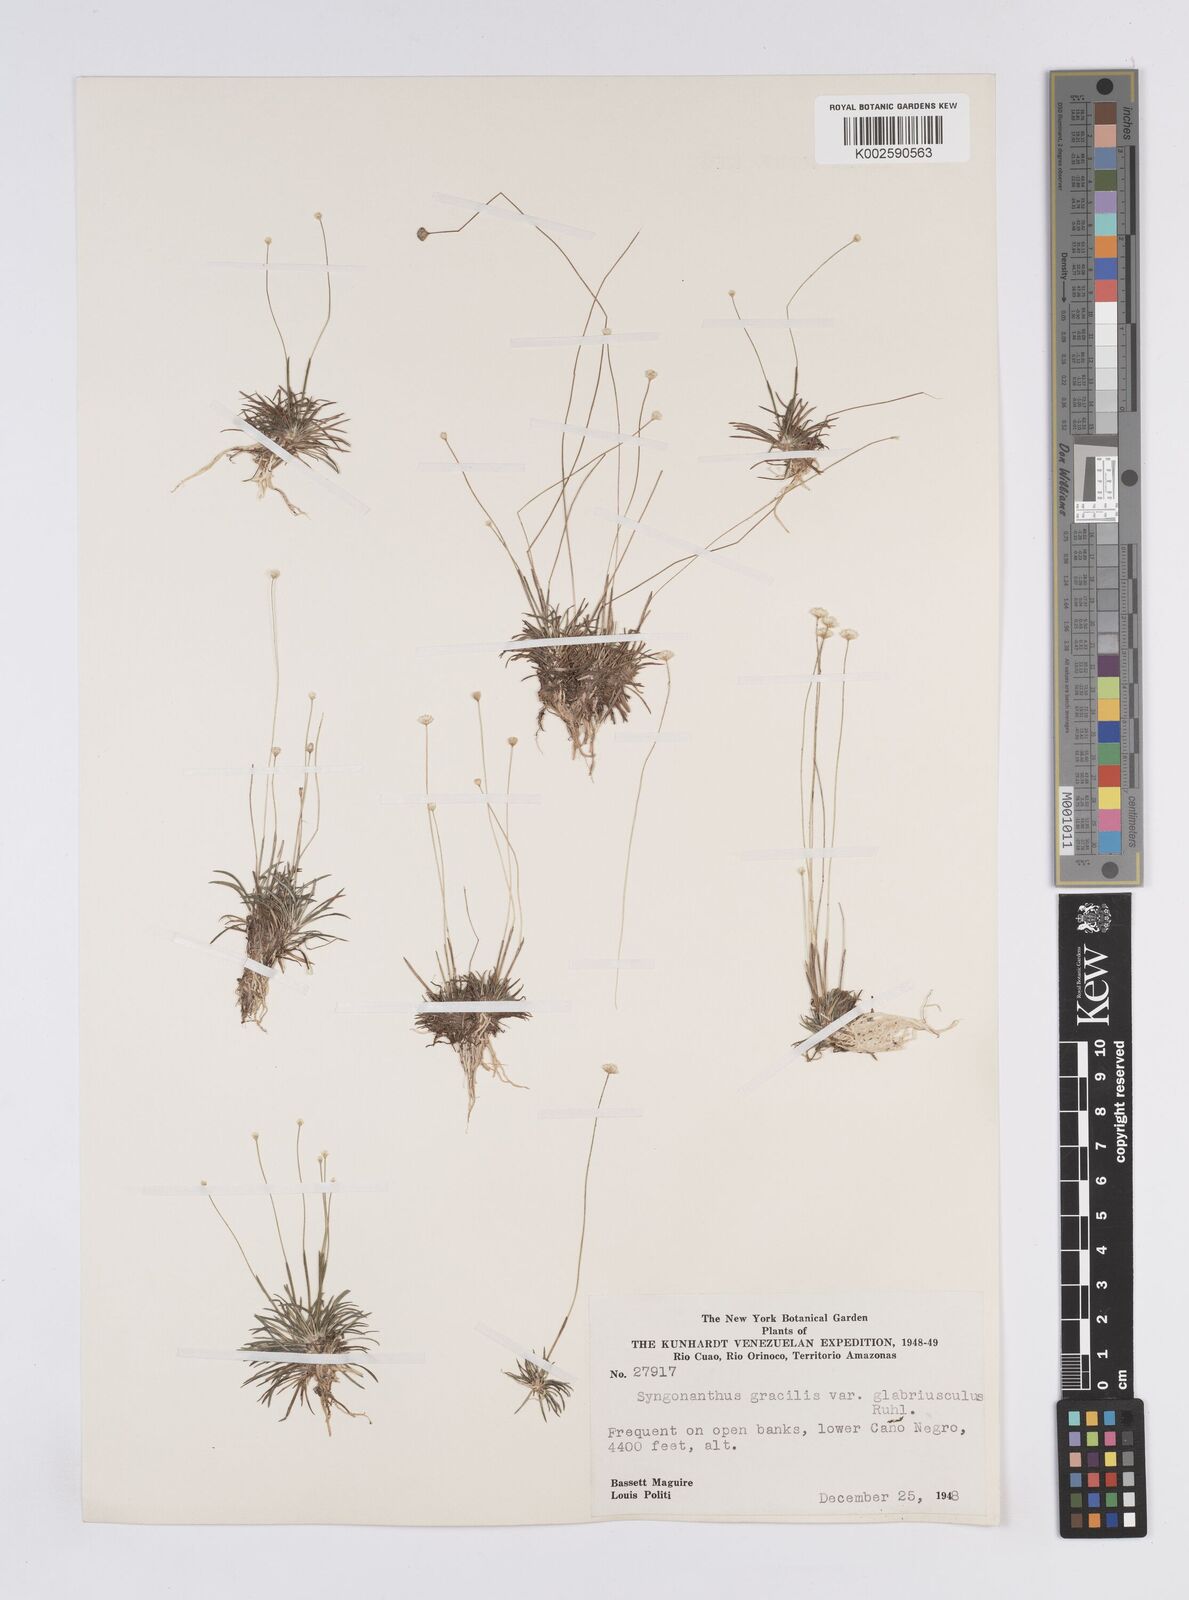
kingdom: Plantae
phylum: Tracheophyta
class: Liliopsida
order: Poales
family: Eriocaulaceae
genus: Syngonanthus
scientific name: Syngonanthus gracilis
